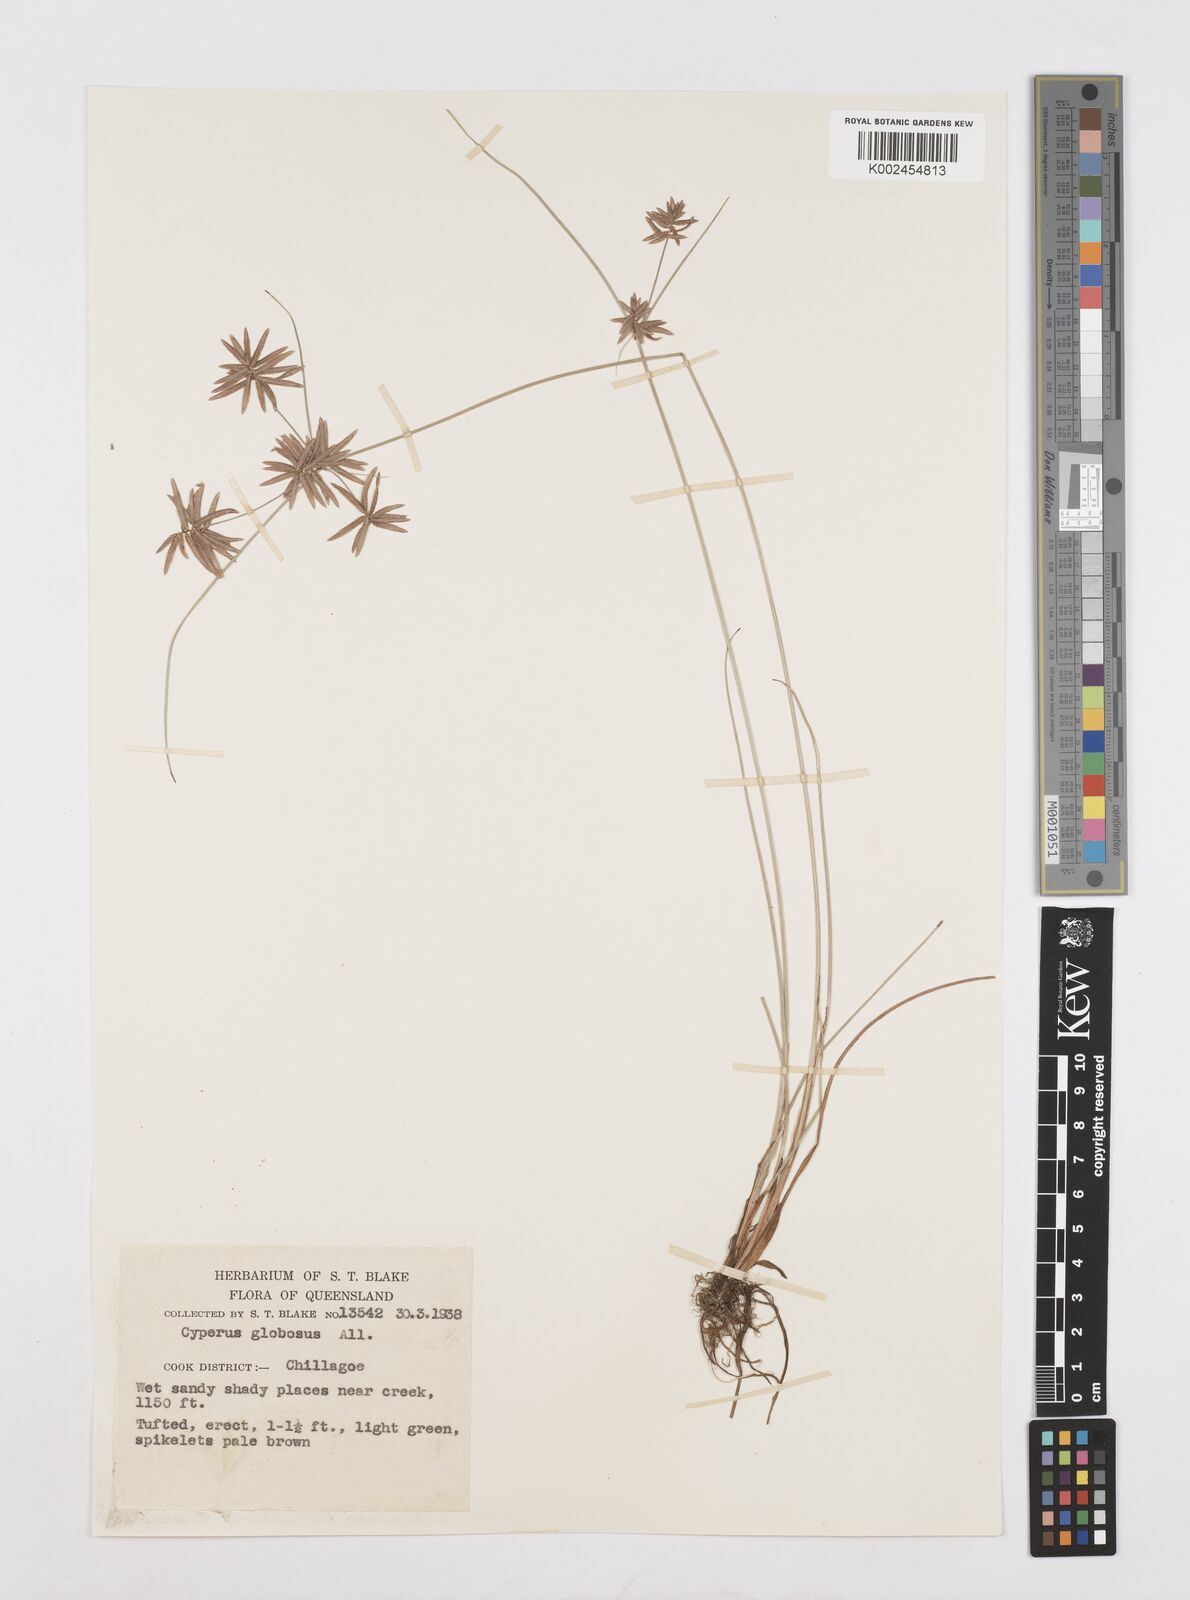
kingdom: Plantae
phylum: Tracheophyta
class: Liliopsida
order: Poales
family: Cyperaceae
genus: Cyperus
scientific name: Cyperus flavidus
